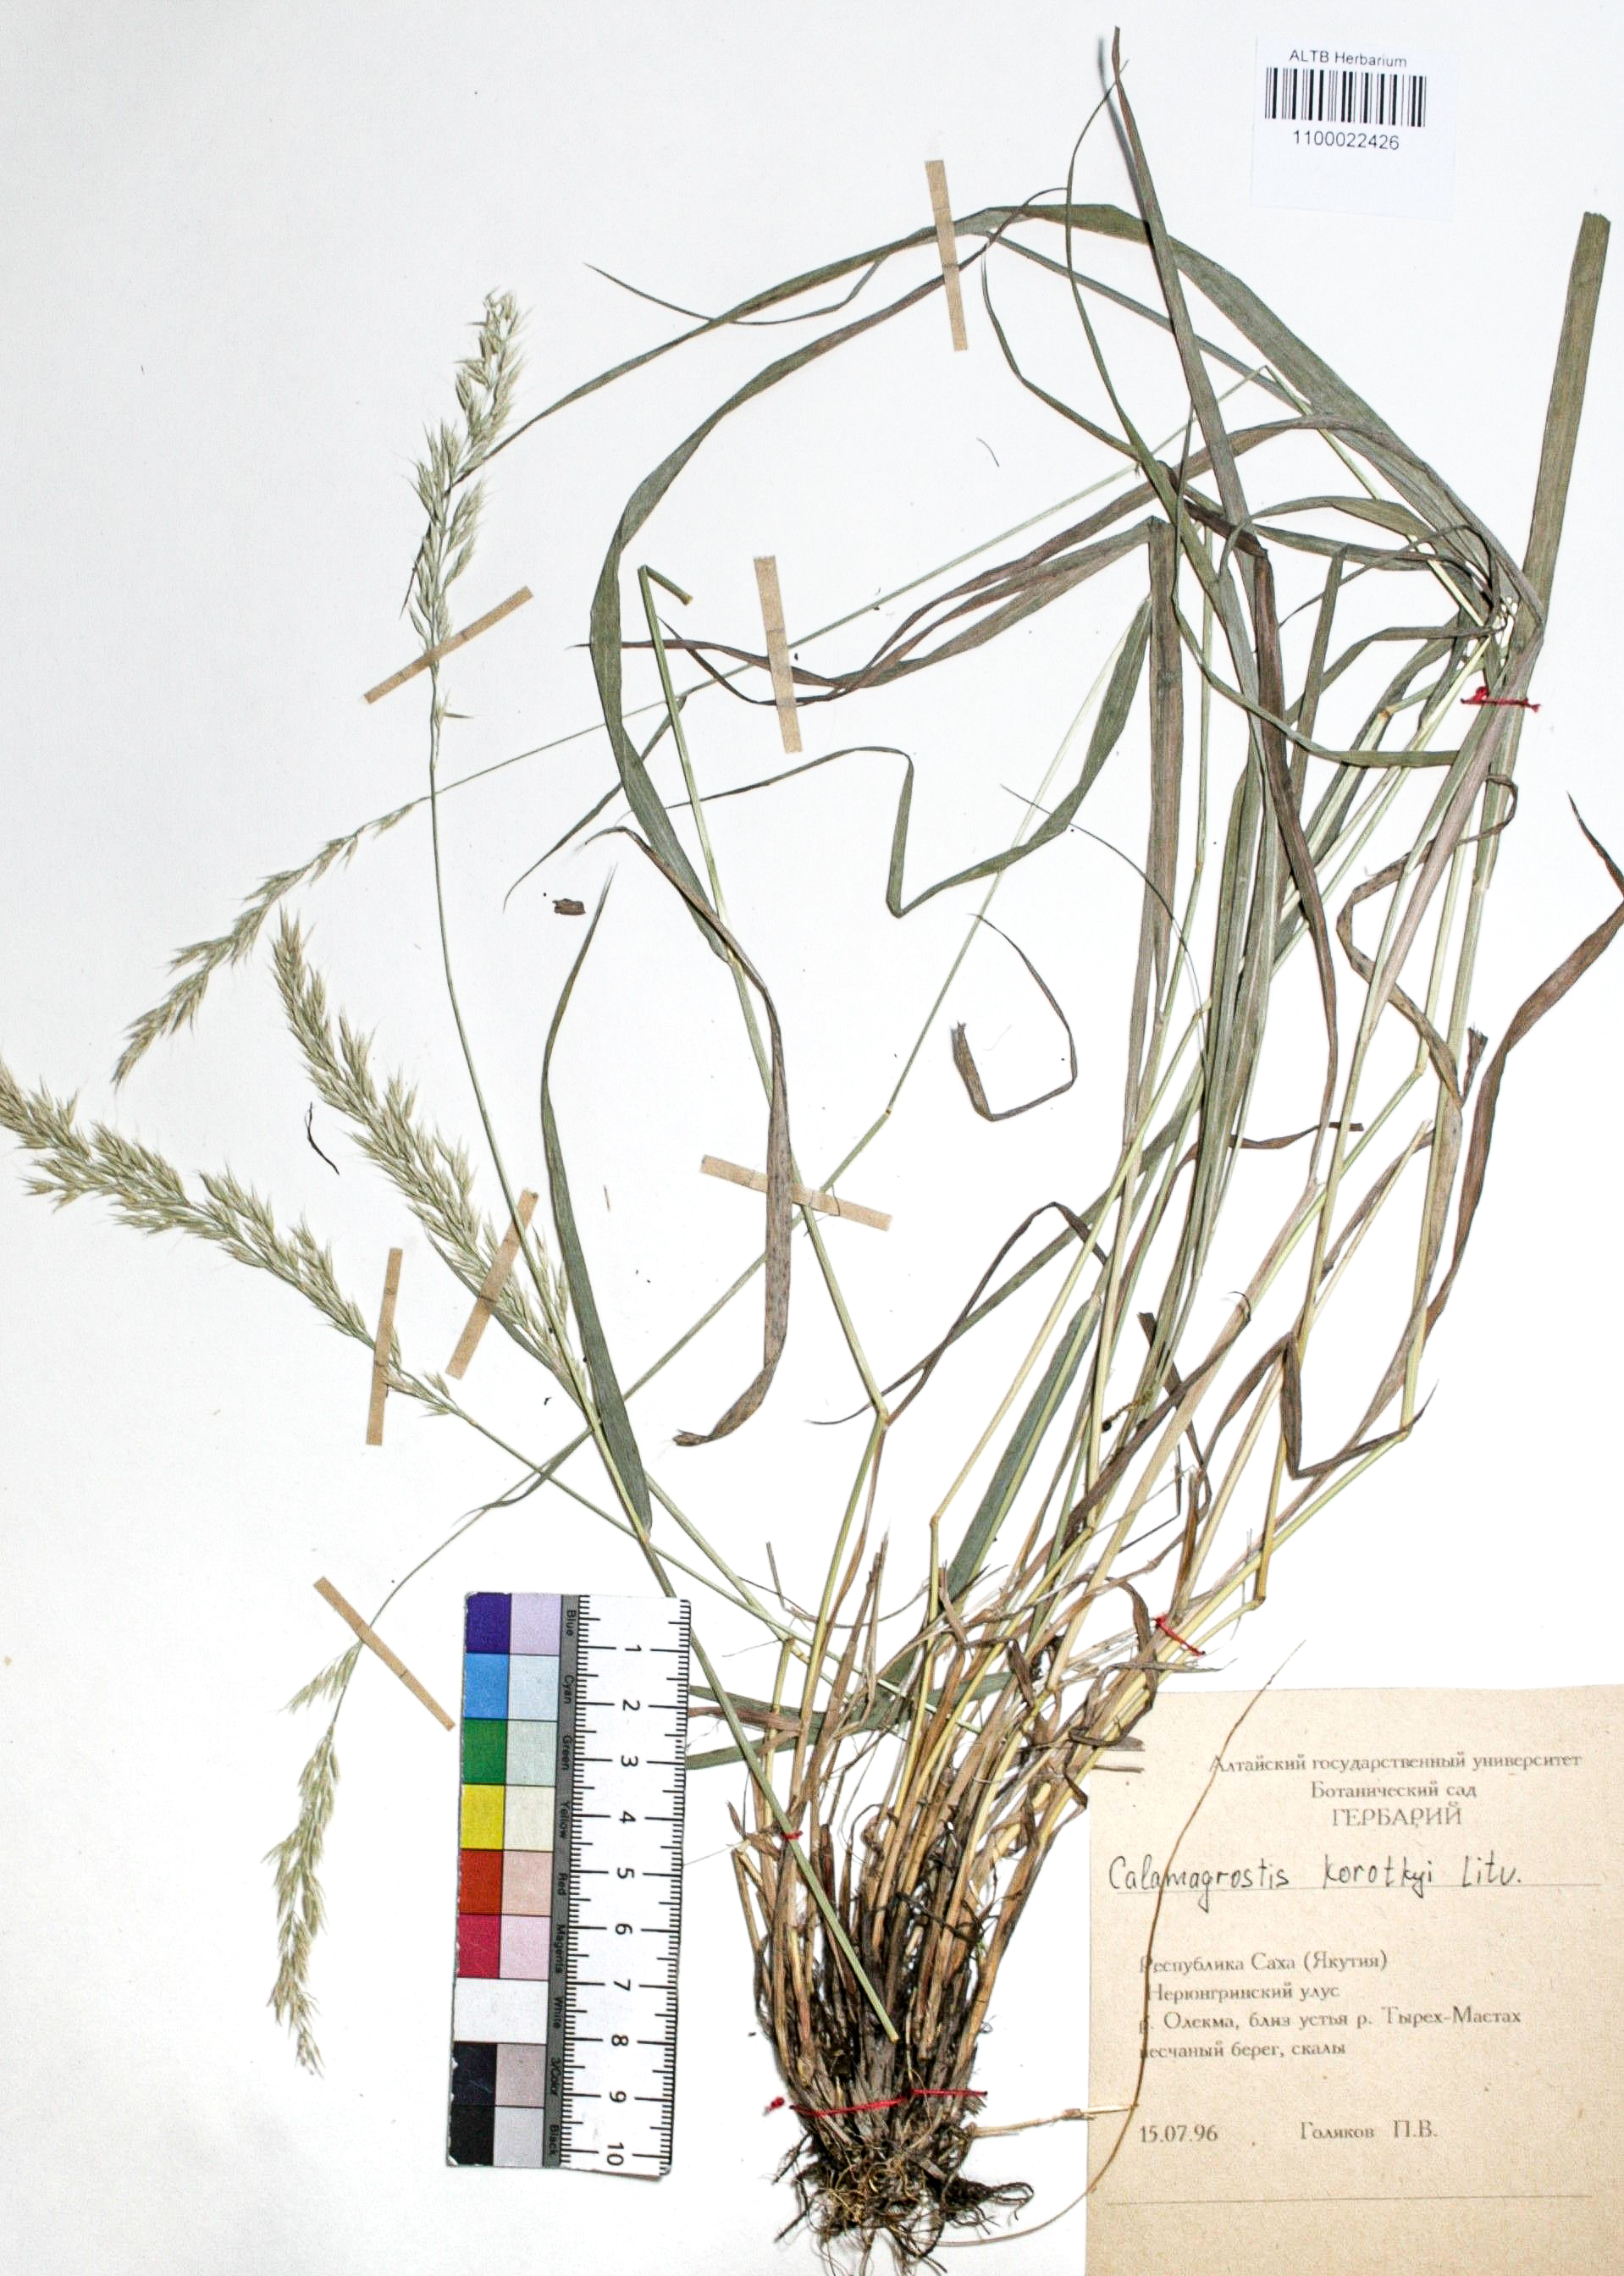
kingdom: Plantae
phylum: Tracheophyta
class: Liliopsida
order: Poales
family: Poaceae
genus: Calamagrostis
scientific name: Calamagrostis korotkyi
